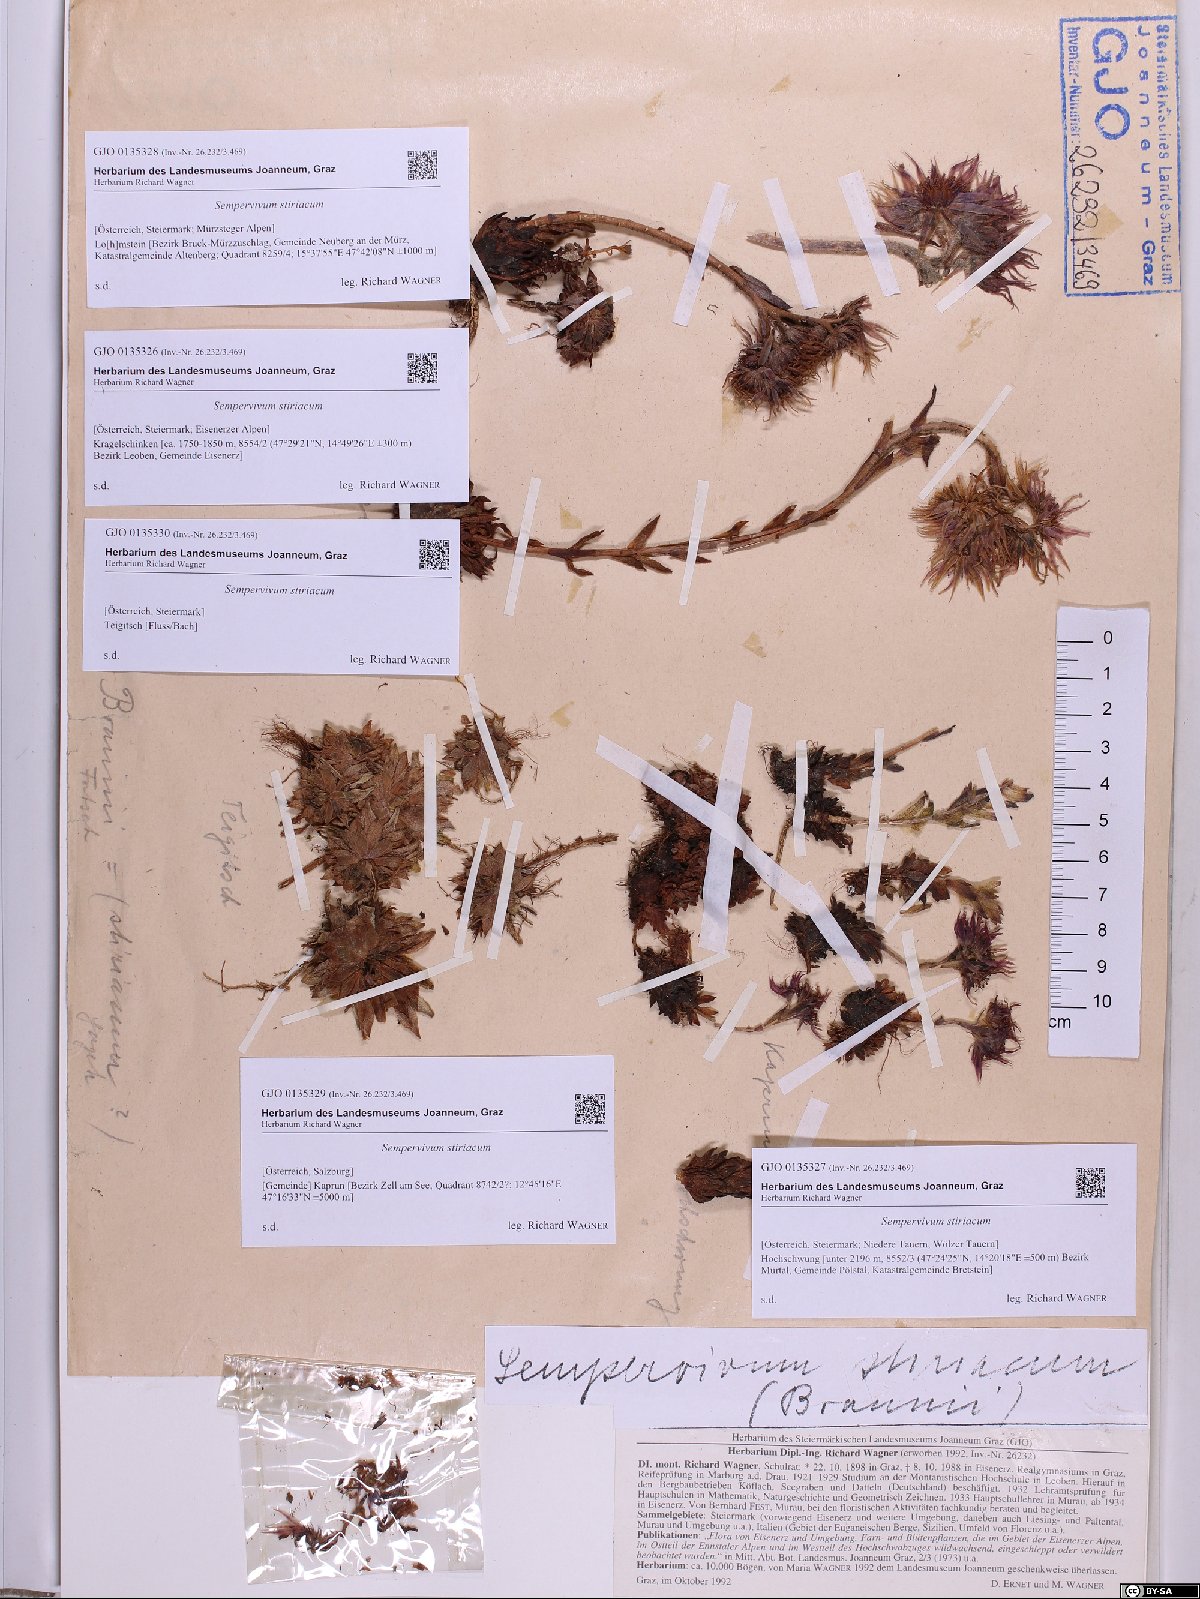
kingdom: Plantae
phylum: Tracheophyta
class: Magnoliopsida
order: Saxifragales
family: Crassulaceae
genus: Sempervivum
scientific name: Sempervivum montanum
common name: Mountain house-leek
